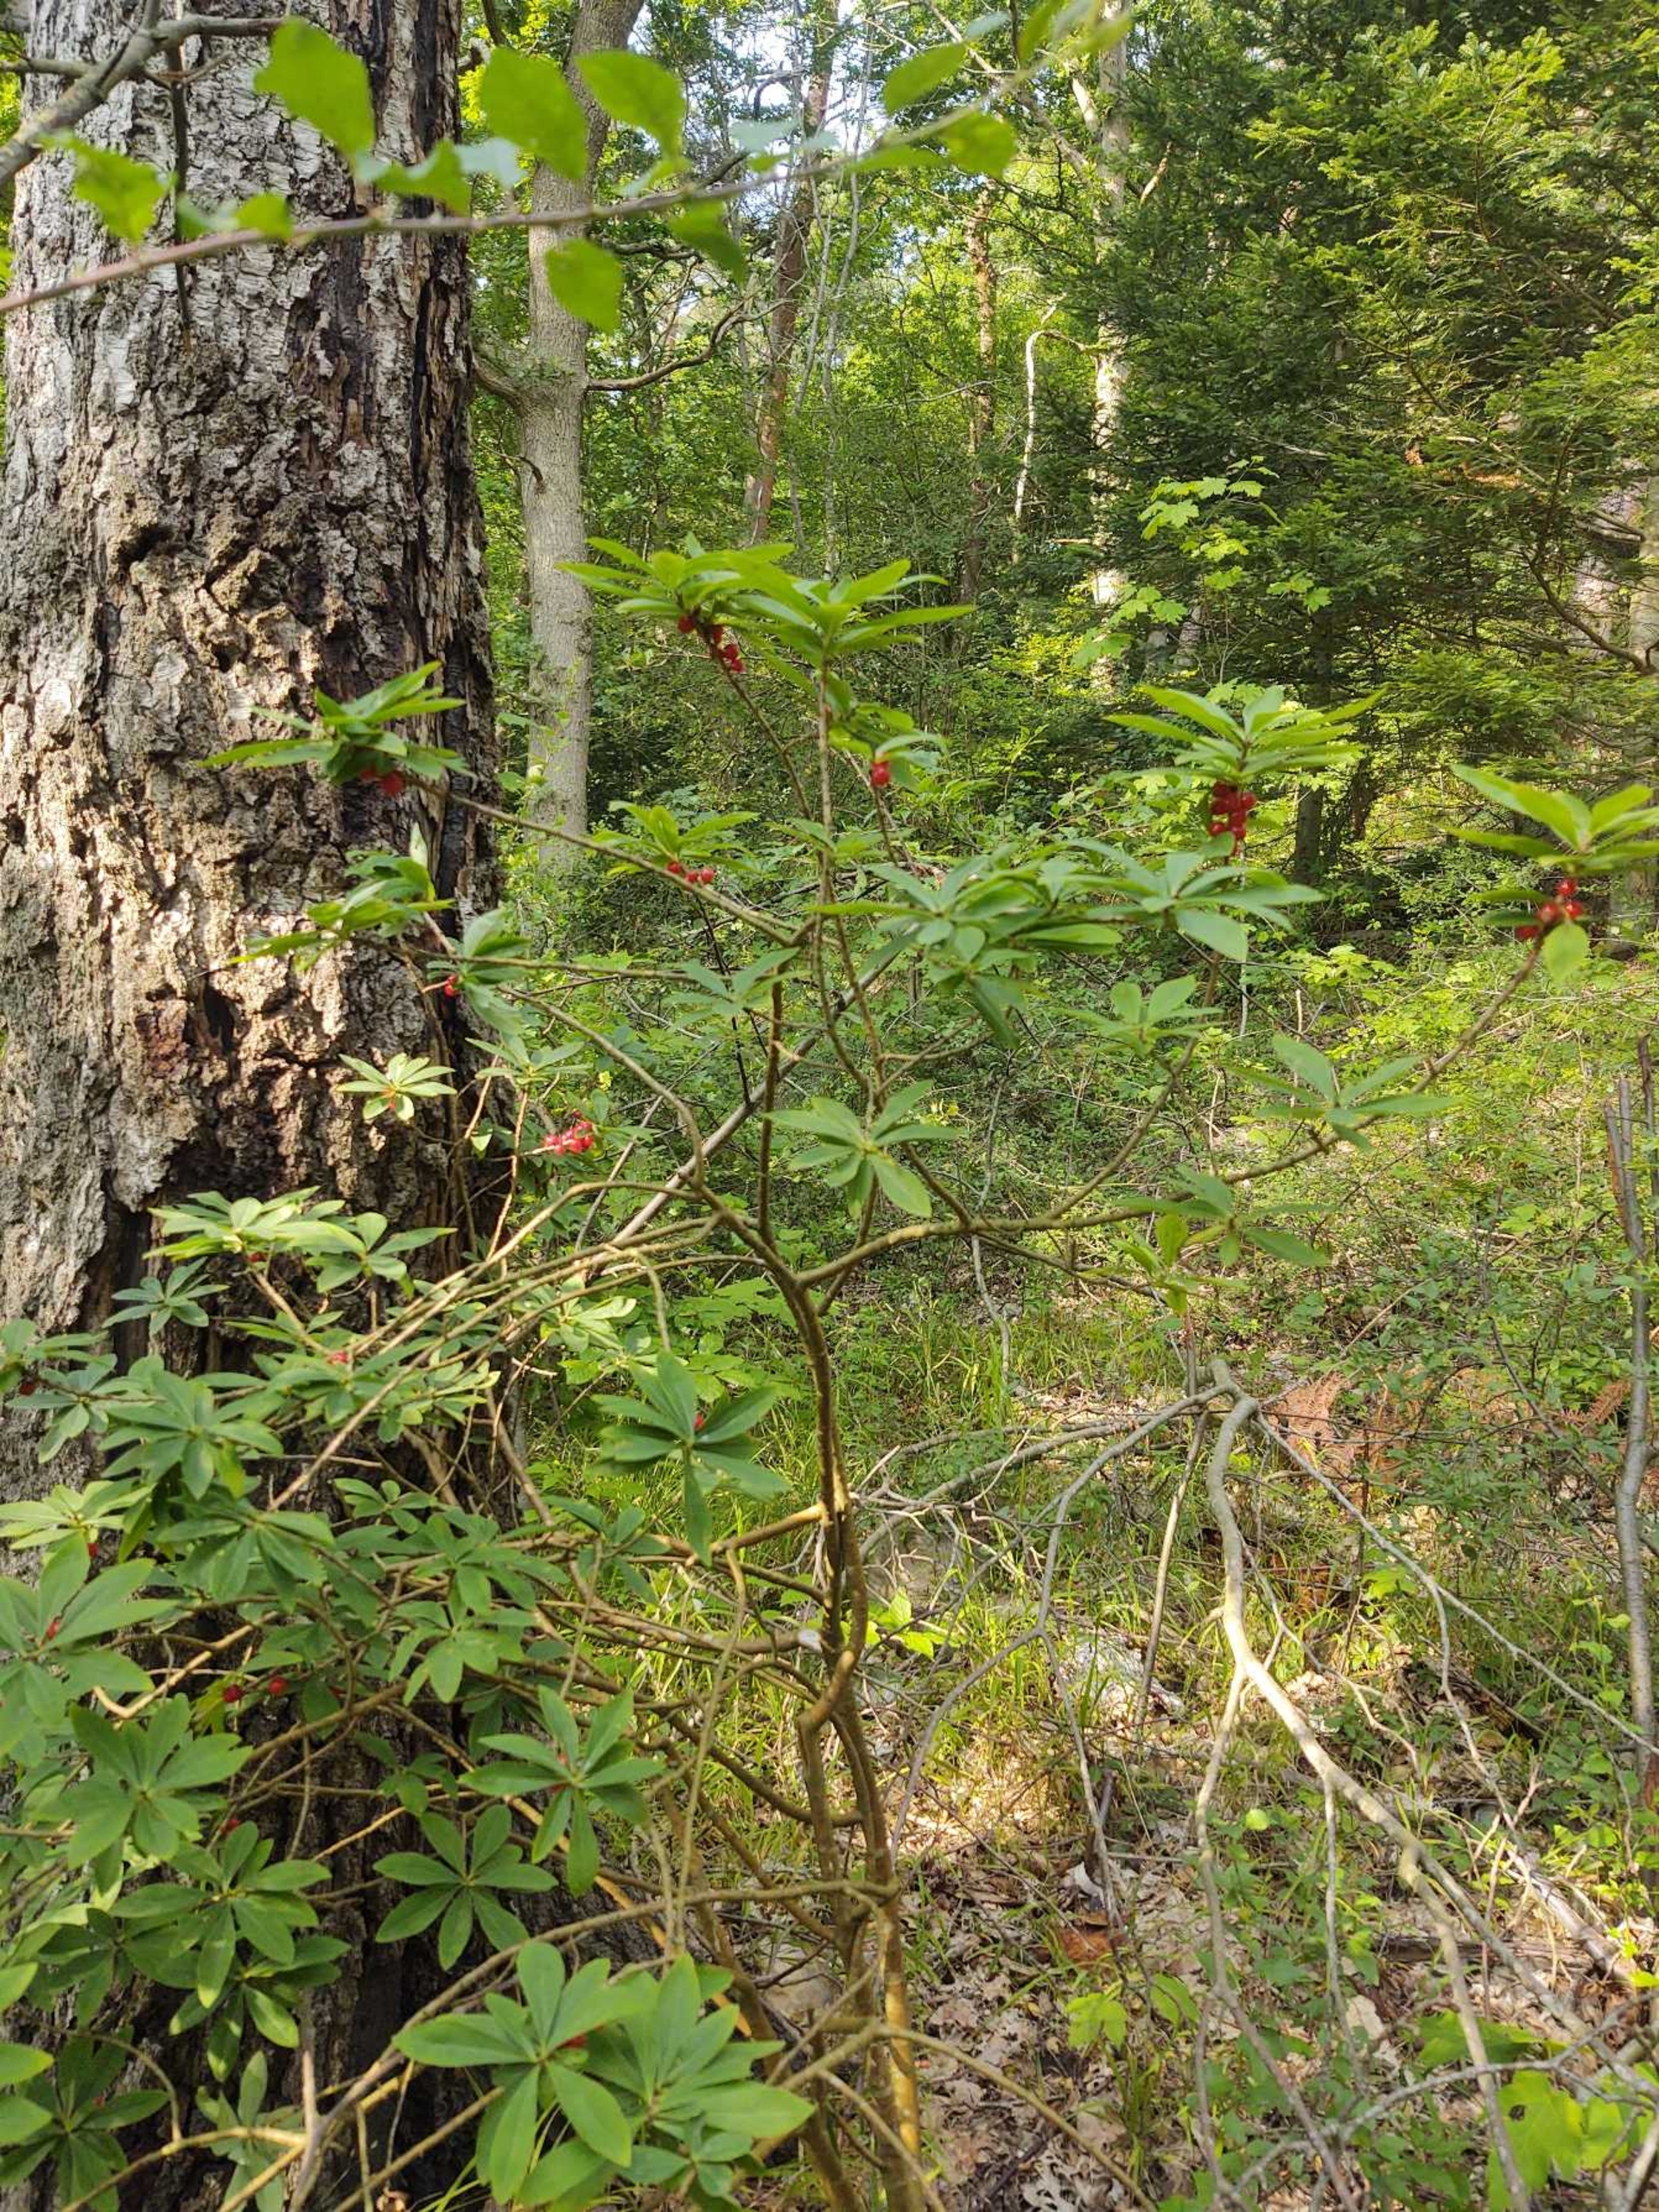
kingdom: Plantae
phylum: Tracheophyta
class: Magnoliopsida
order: Malvales
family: Thymelaeaceae
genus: Daphne
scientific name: Daphne mezereum
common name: Pebertræ
